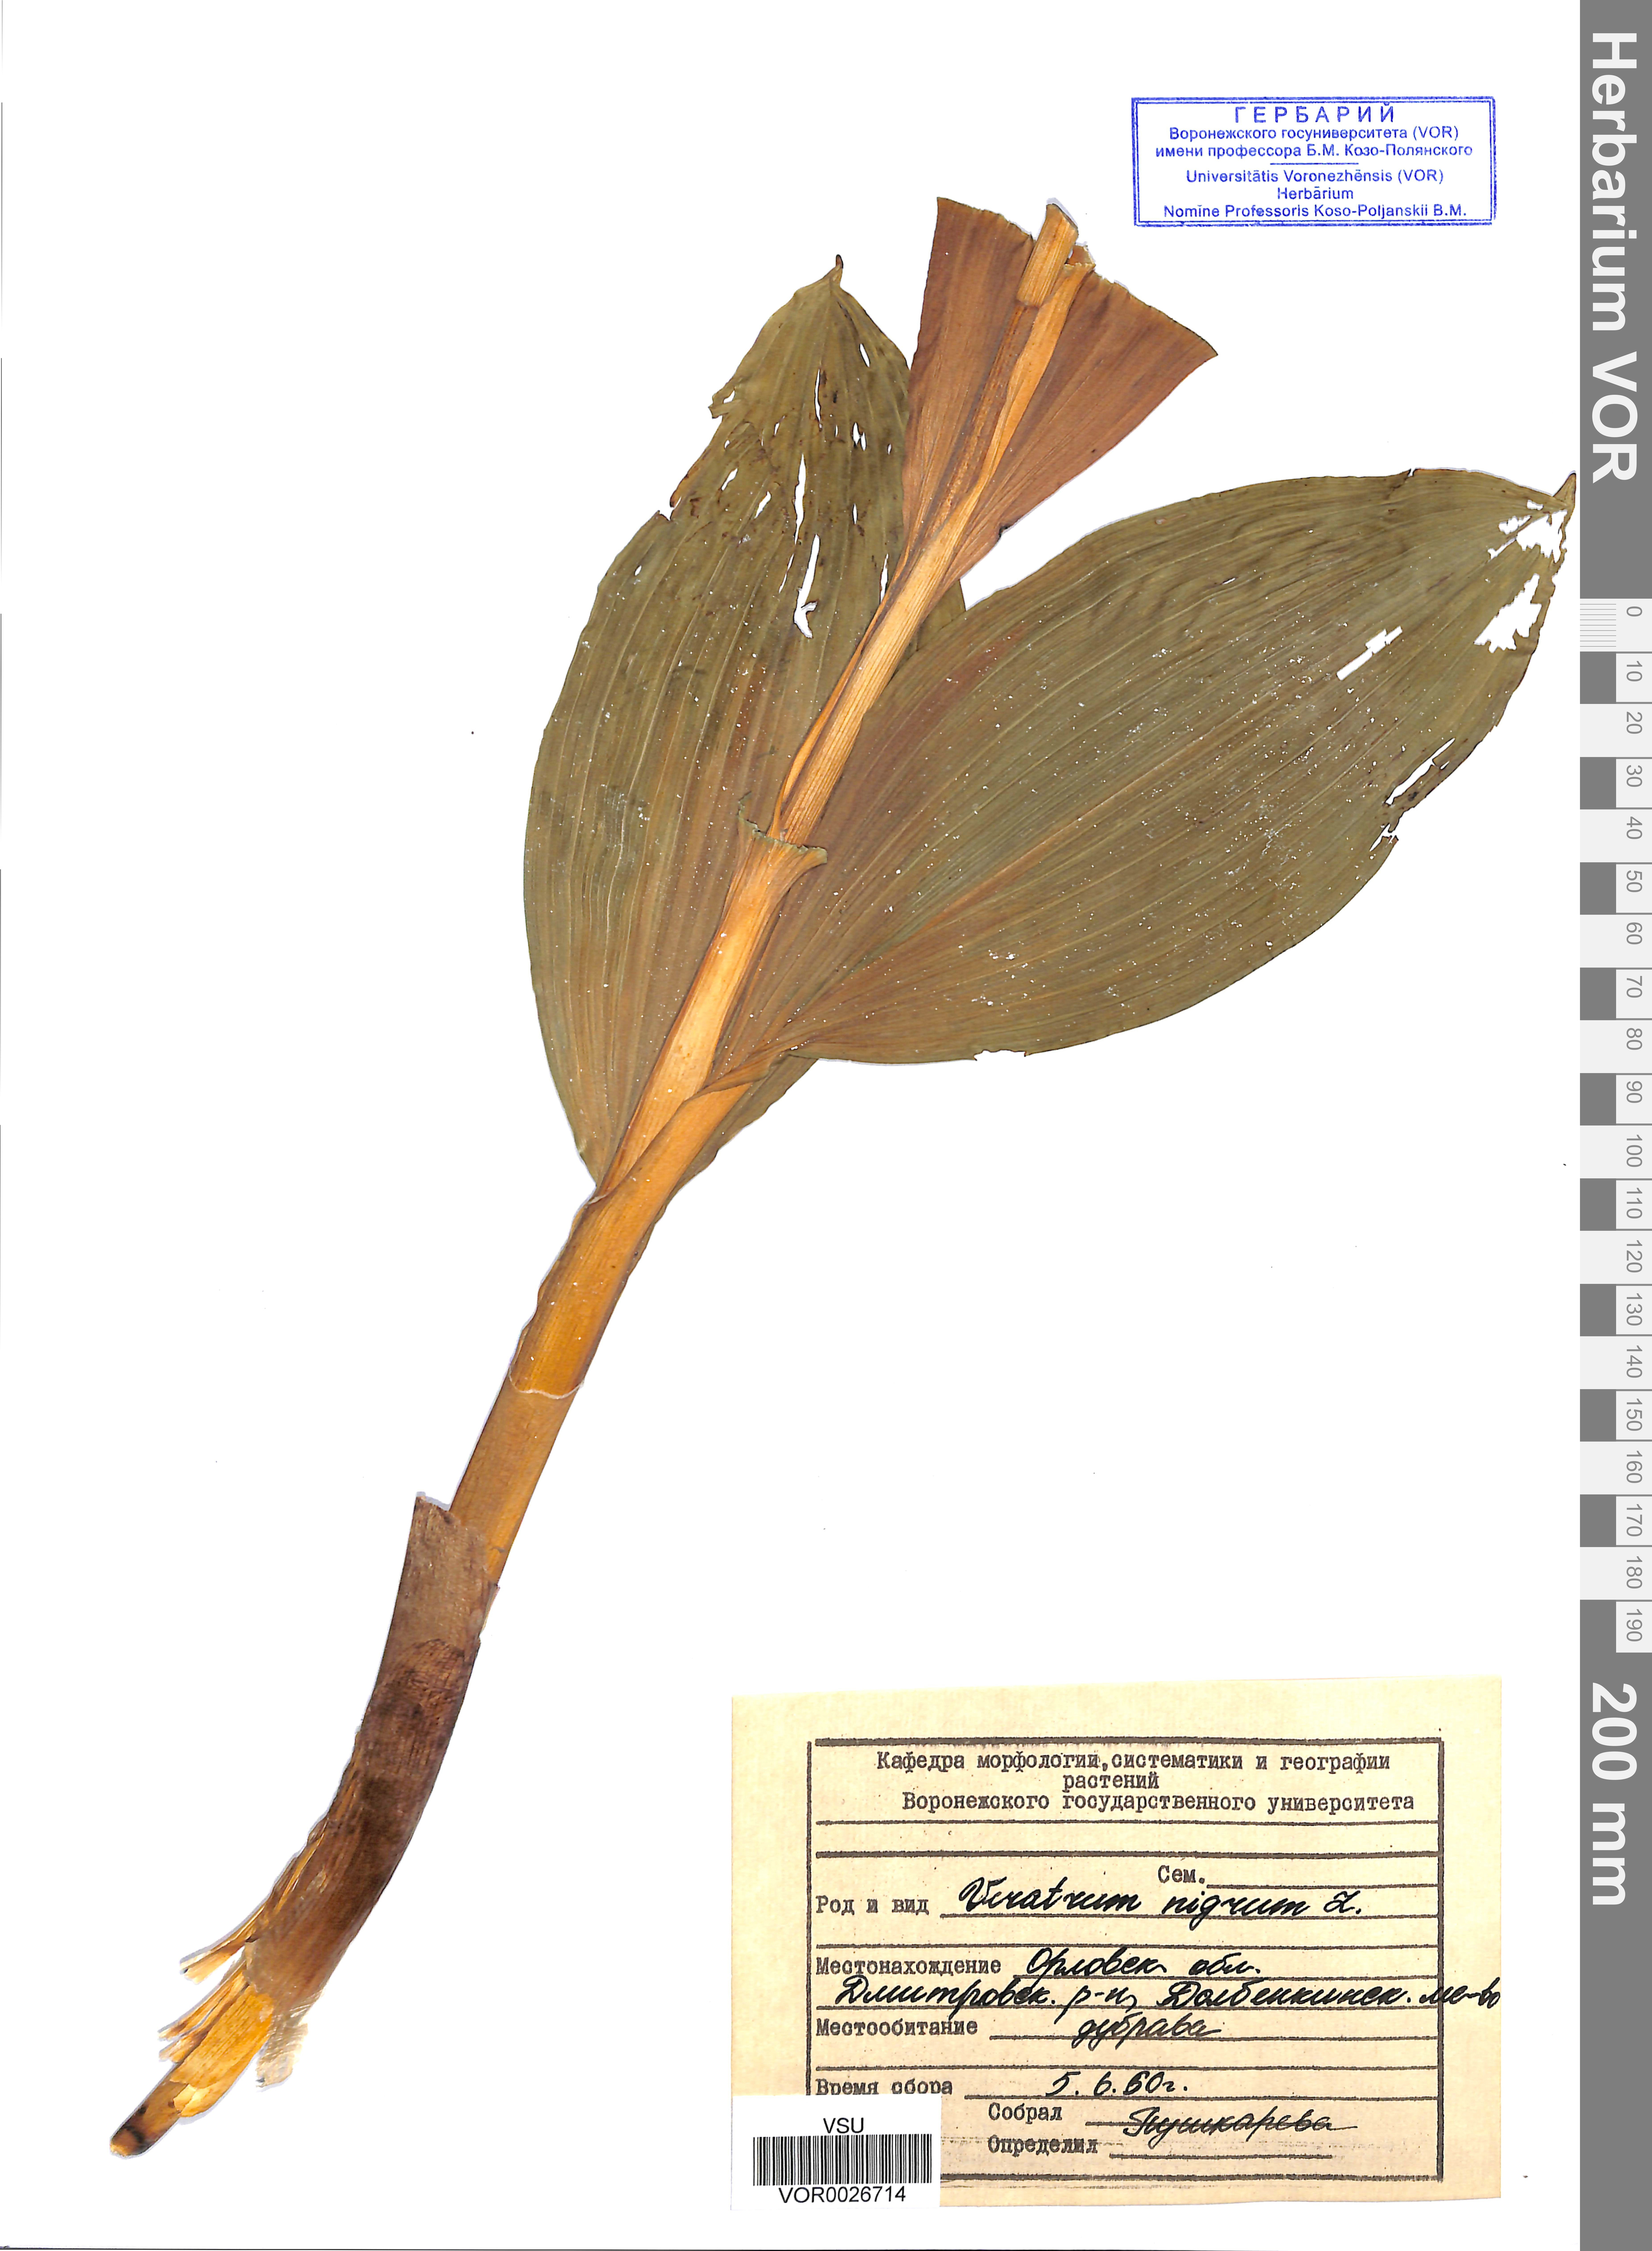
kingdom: Plantae
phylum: Tracheophyta
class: Liliopsida
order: Liliales
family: Melanthiaceae
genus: Veratrum
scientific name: Veratrum nigrum
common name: Black veratrum
